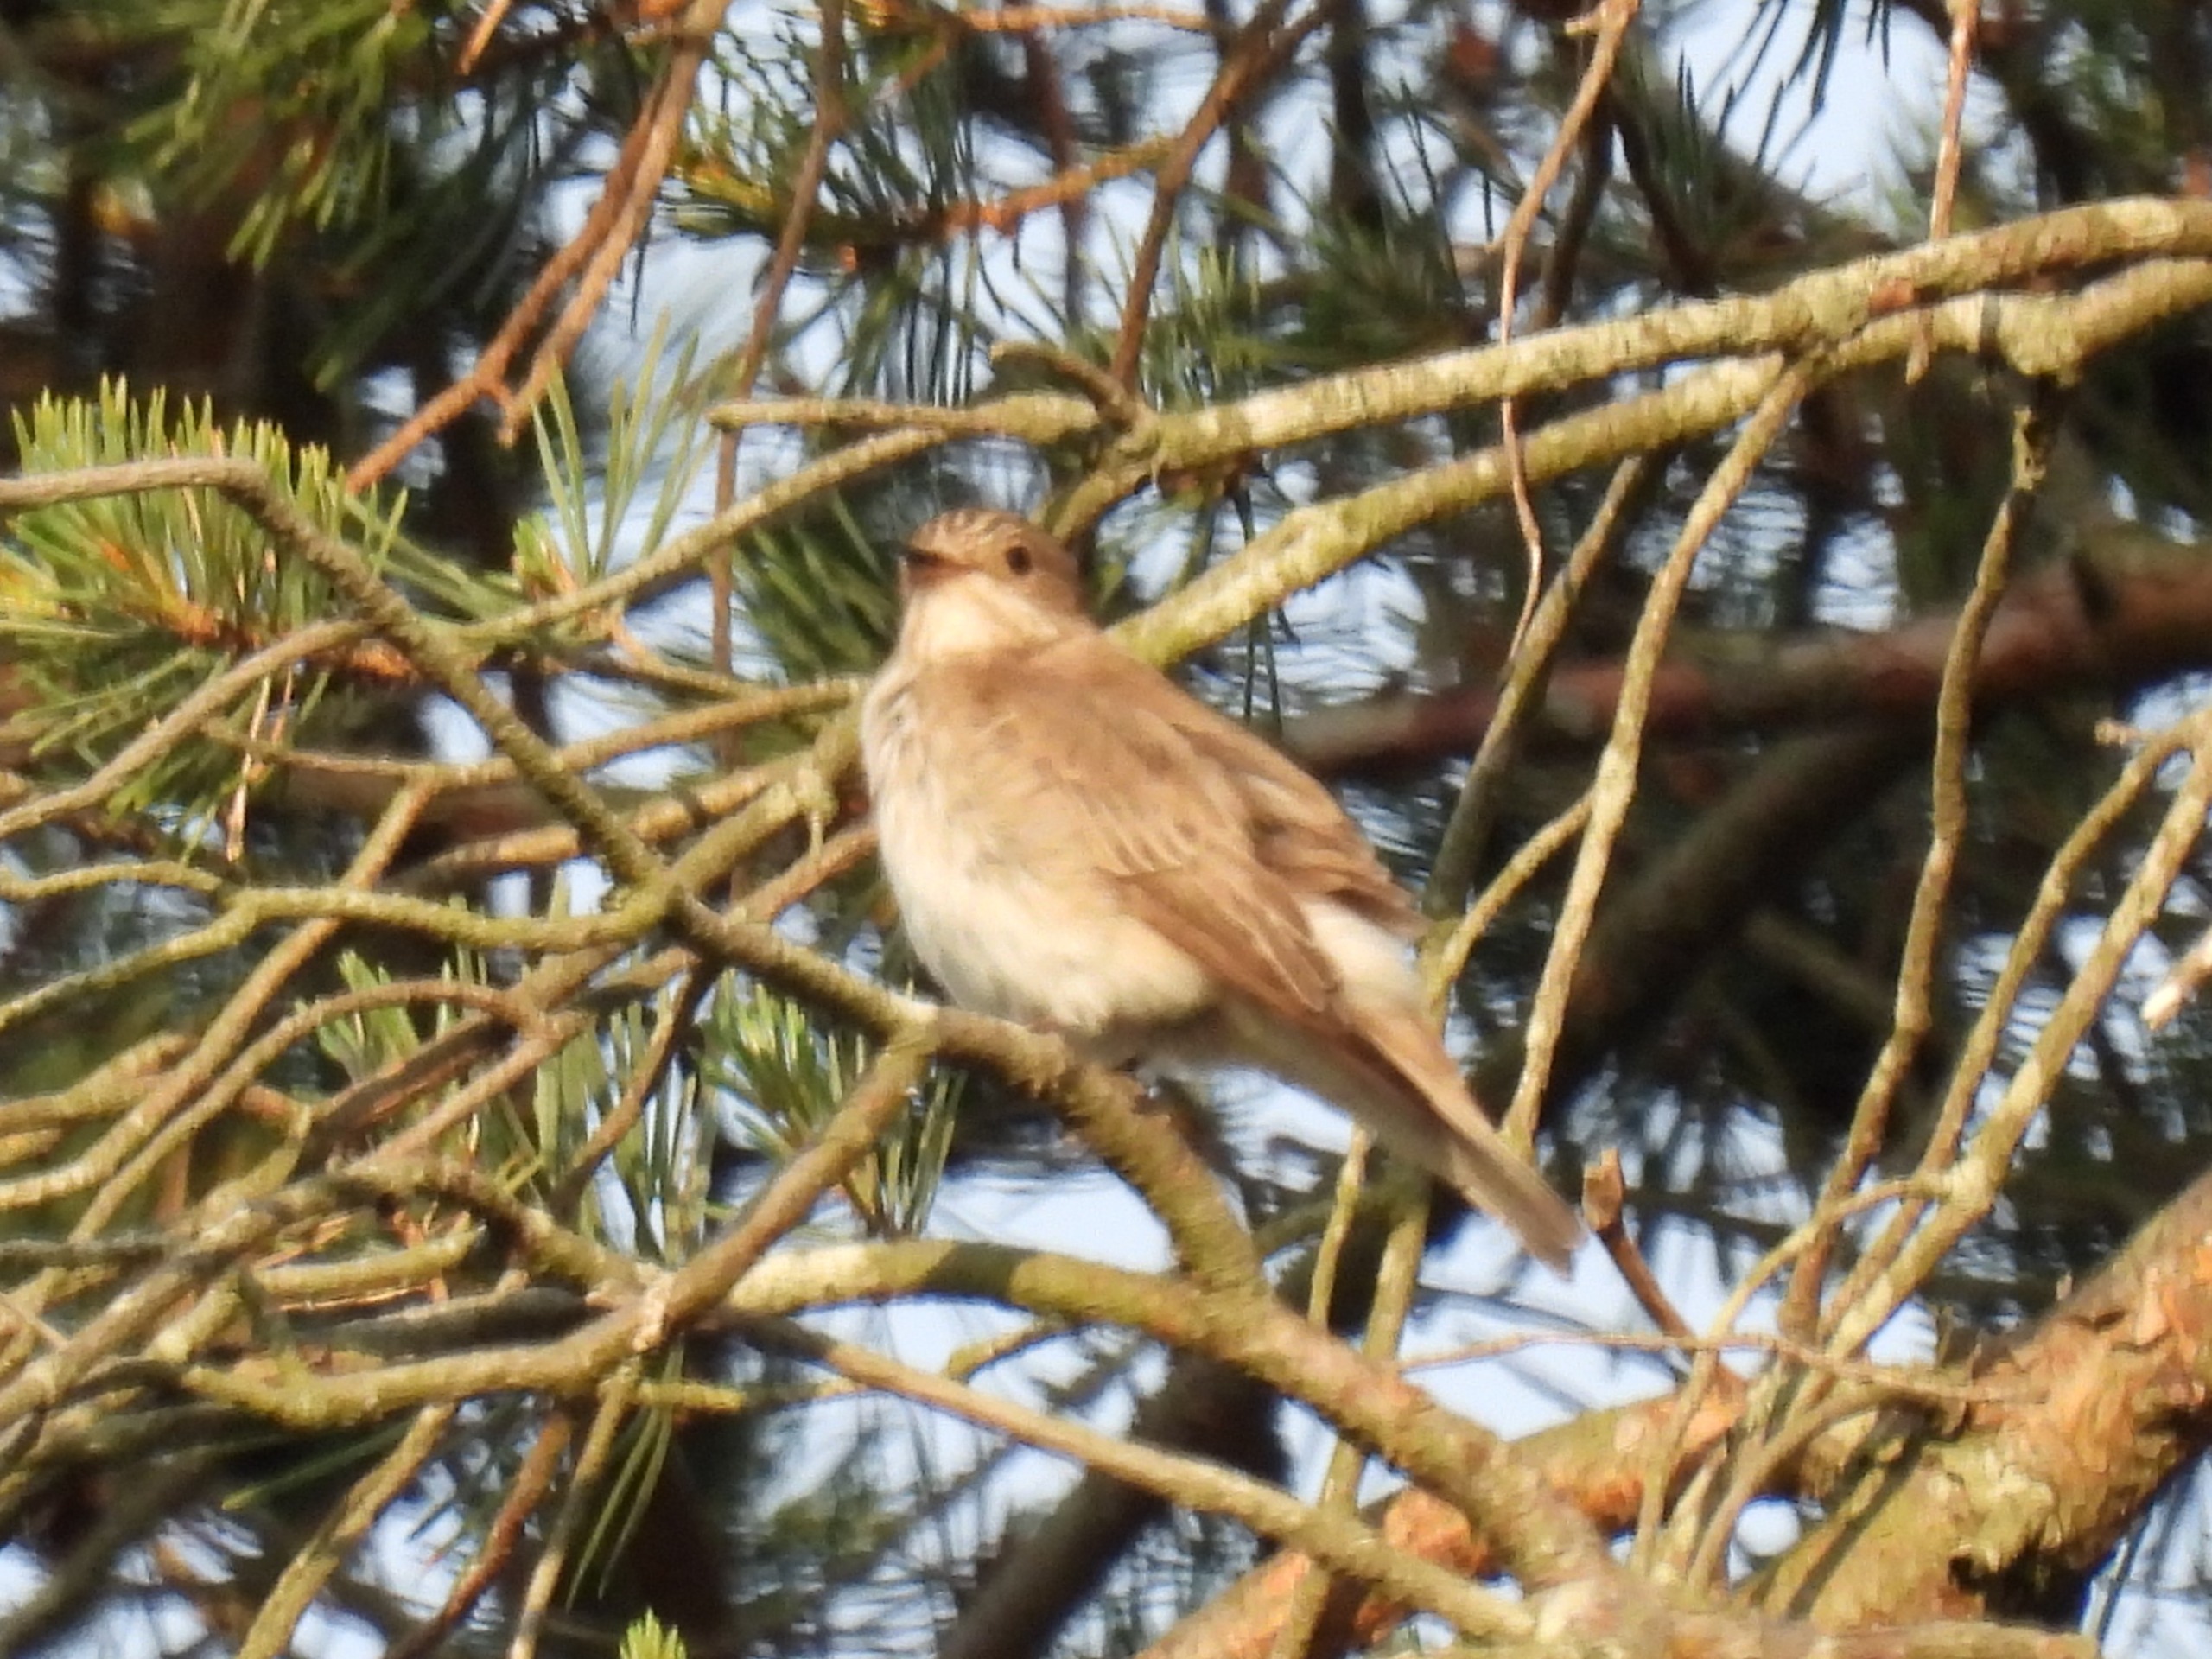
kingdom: Animalia
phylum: Chordata
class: Aves
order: Passeriformes
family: Muscicapidae
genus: Muscicapa
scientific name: Muscicapa striata
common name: Grå fluesnapper
